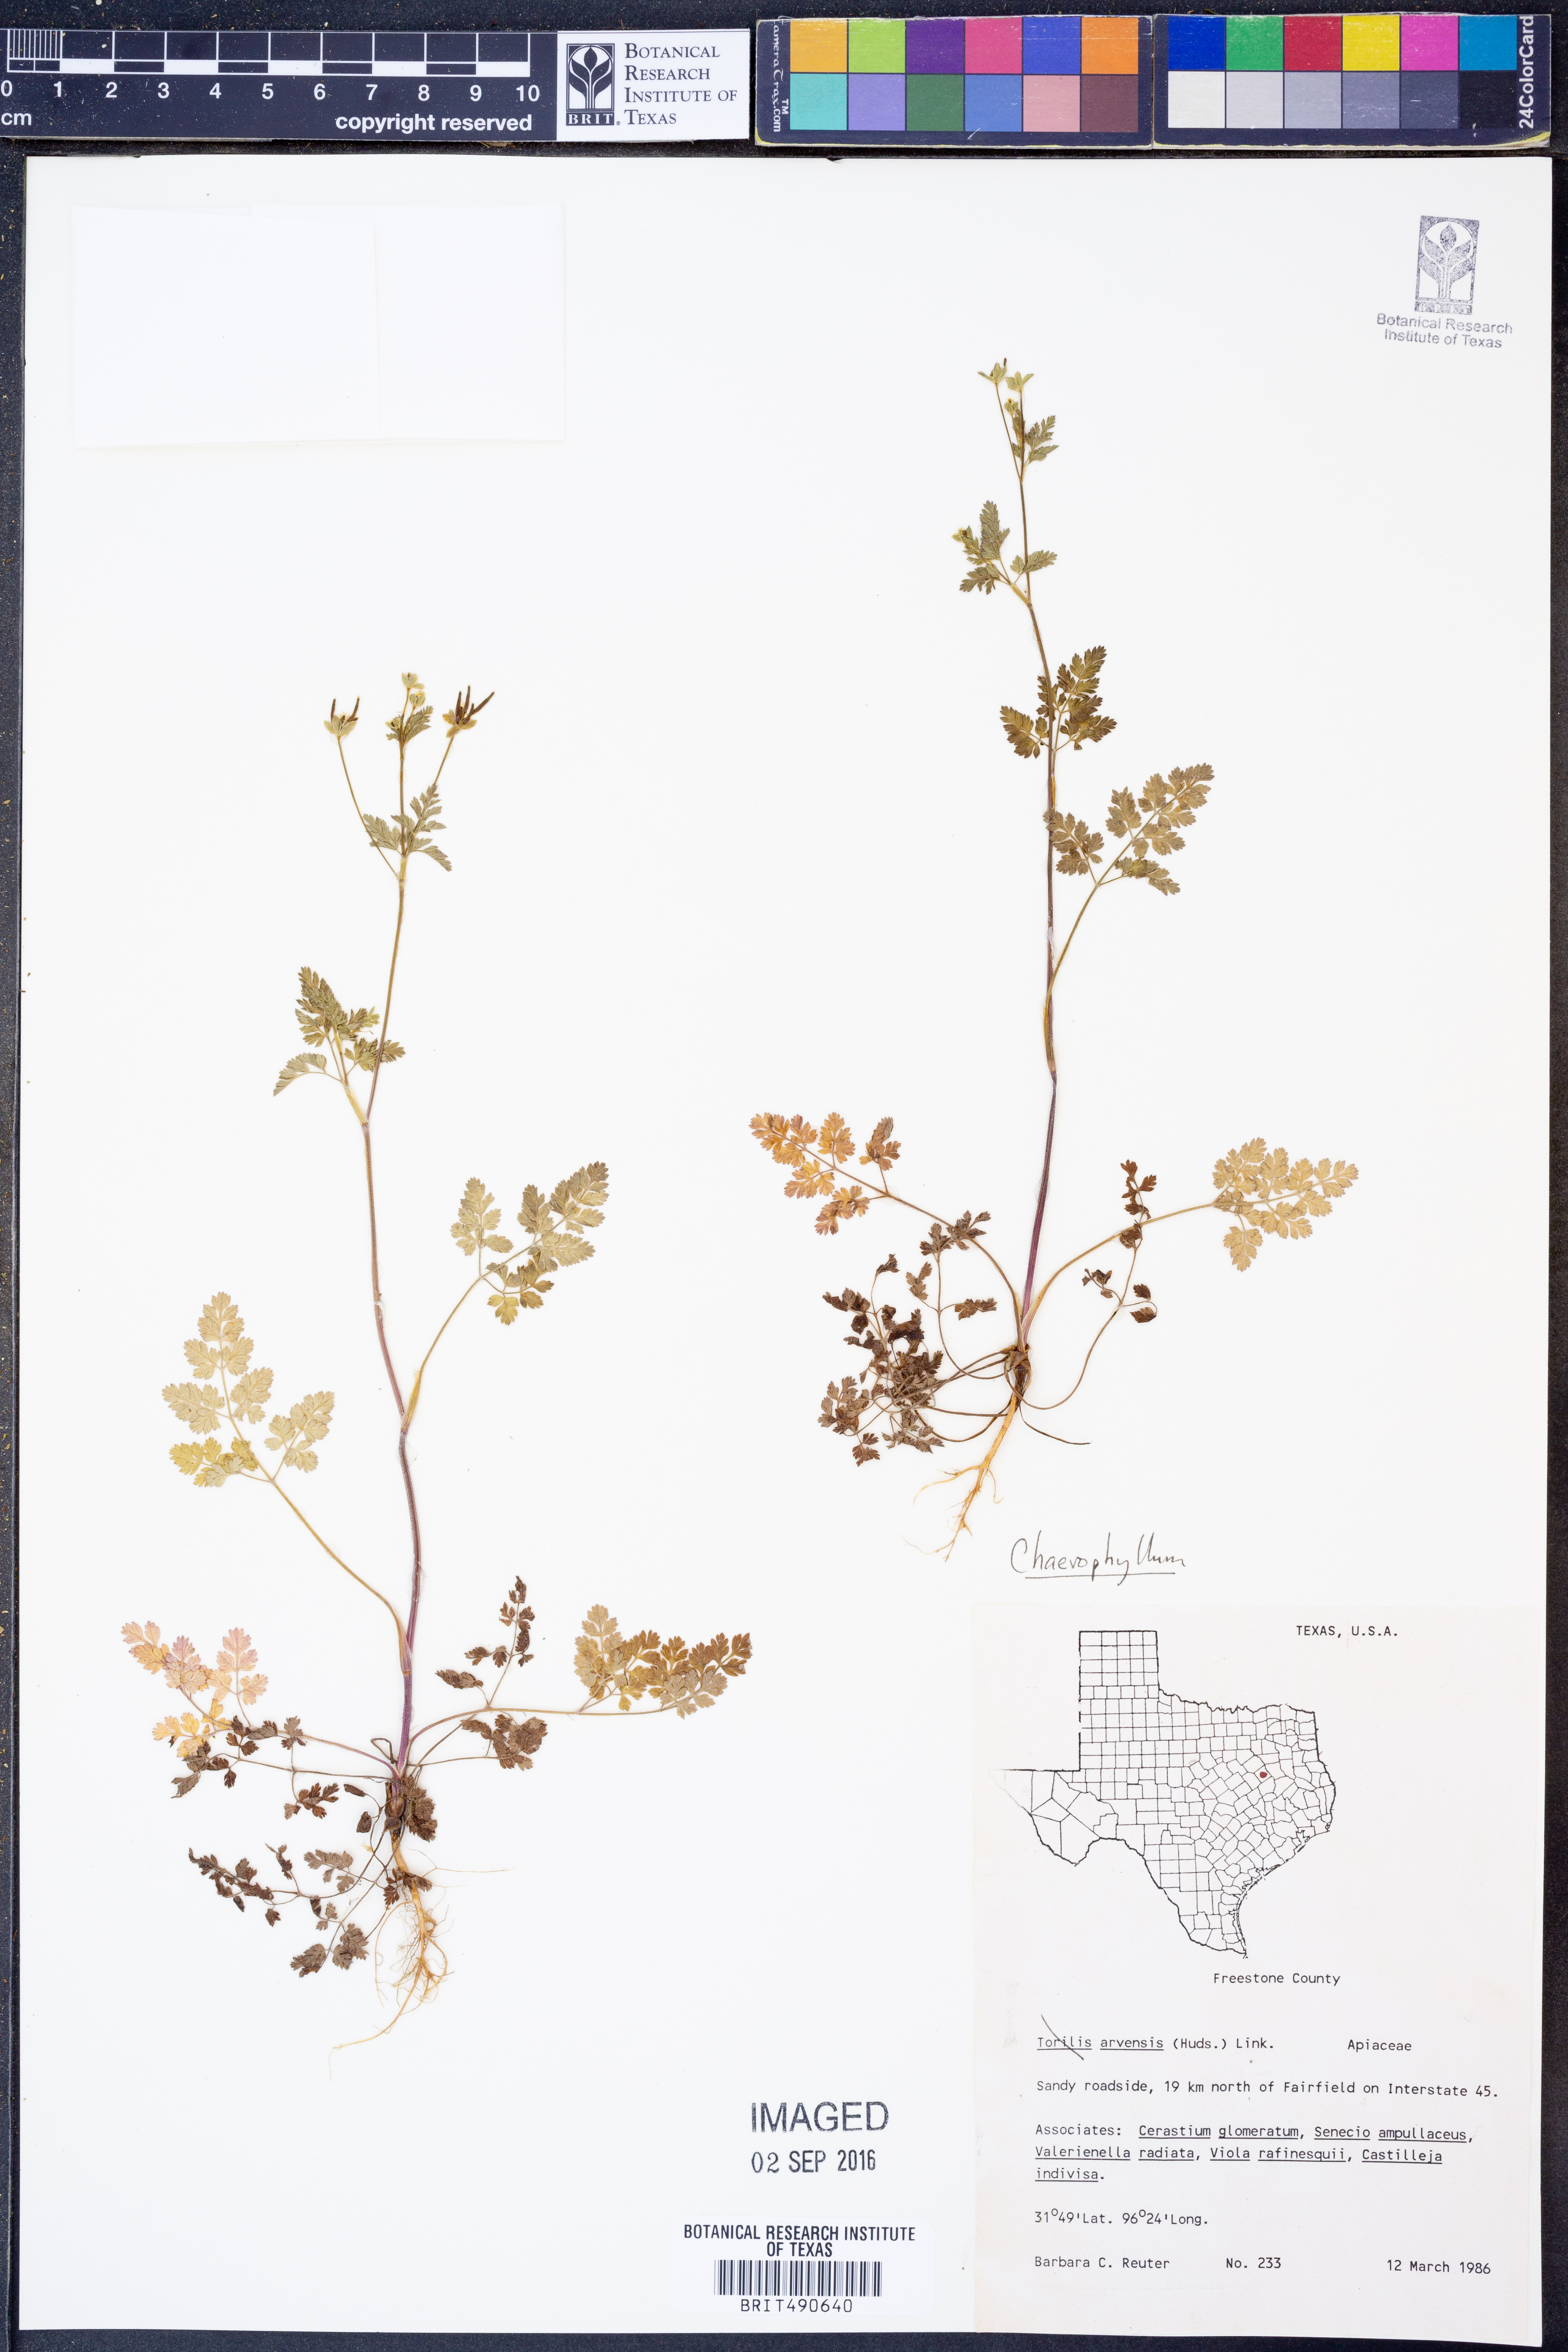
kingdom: Plantae
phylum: Tracheophyta
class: Magnoliopsida
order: Apiales
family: Apiaceae
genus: Torilis
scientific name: Torilis arvensis
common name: Spreading hedge-parsley
